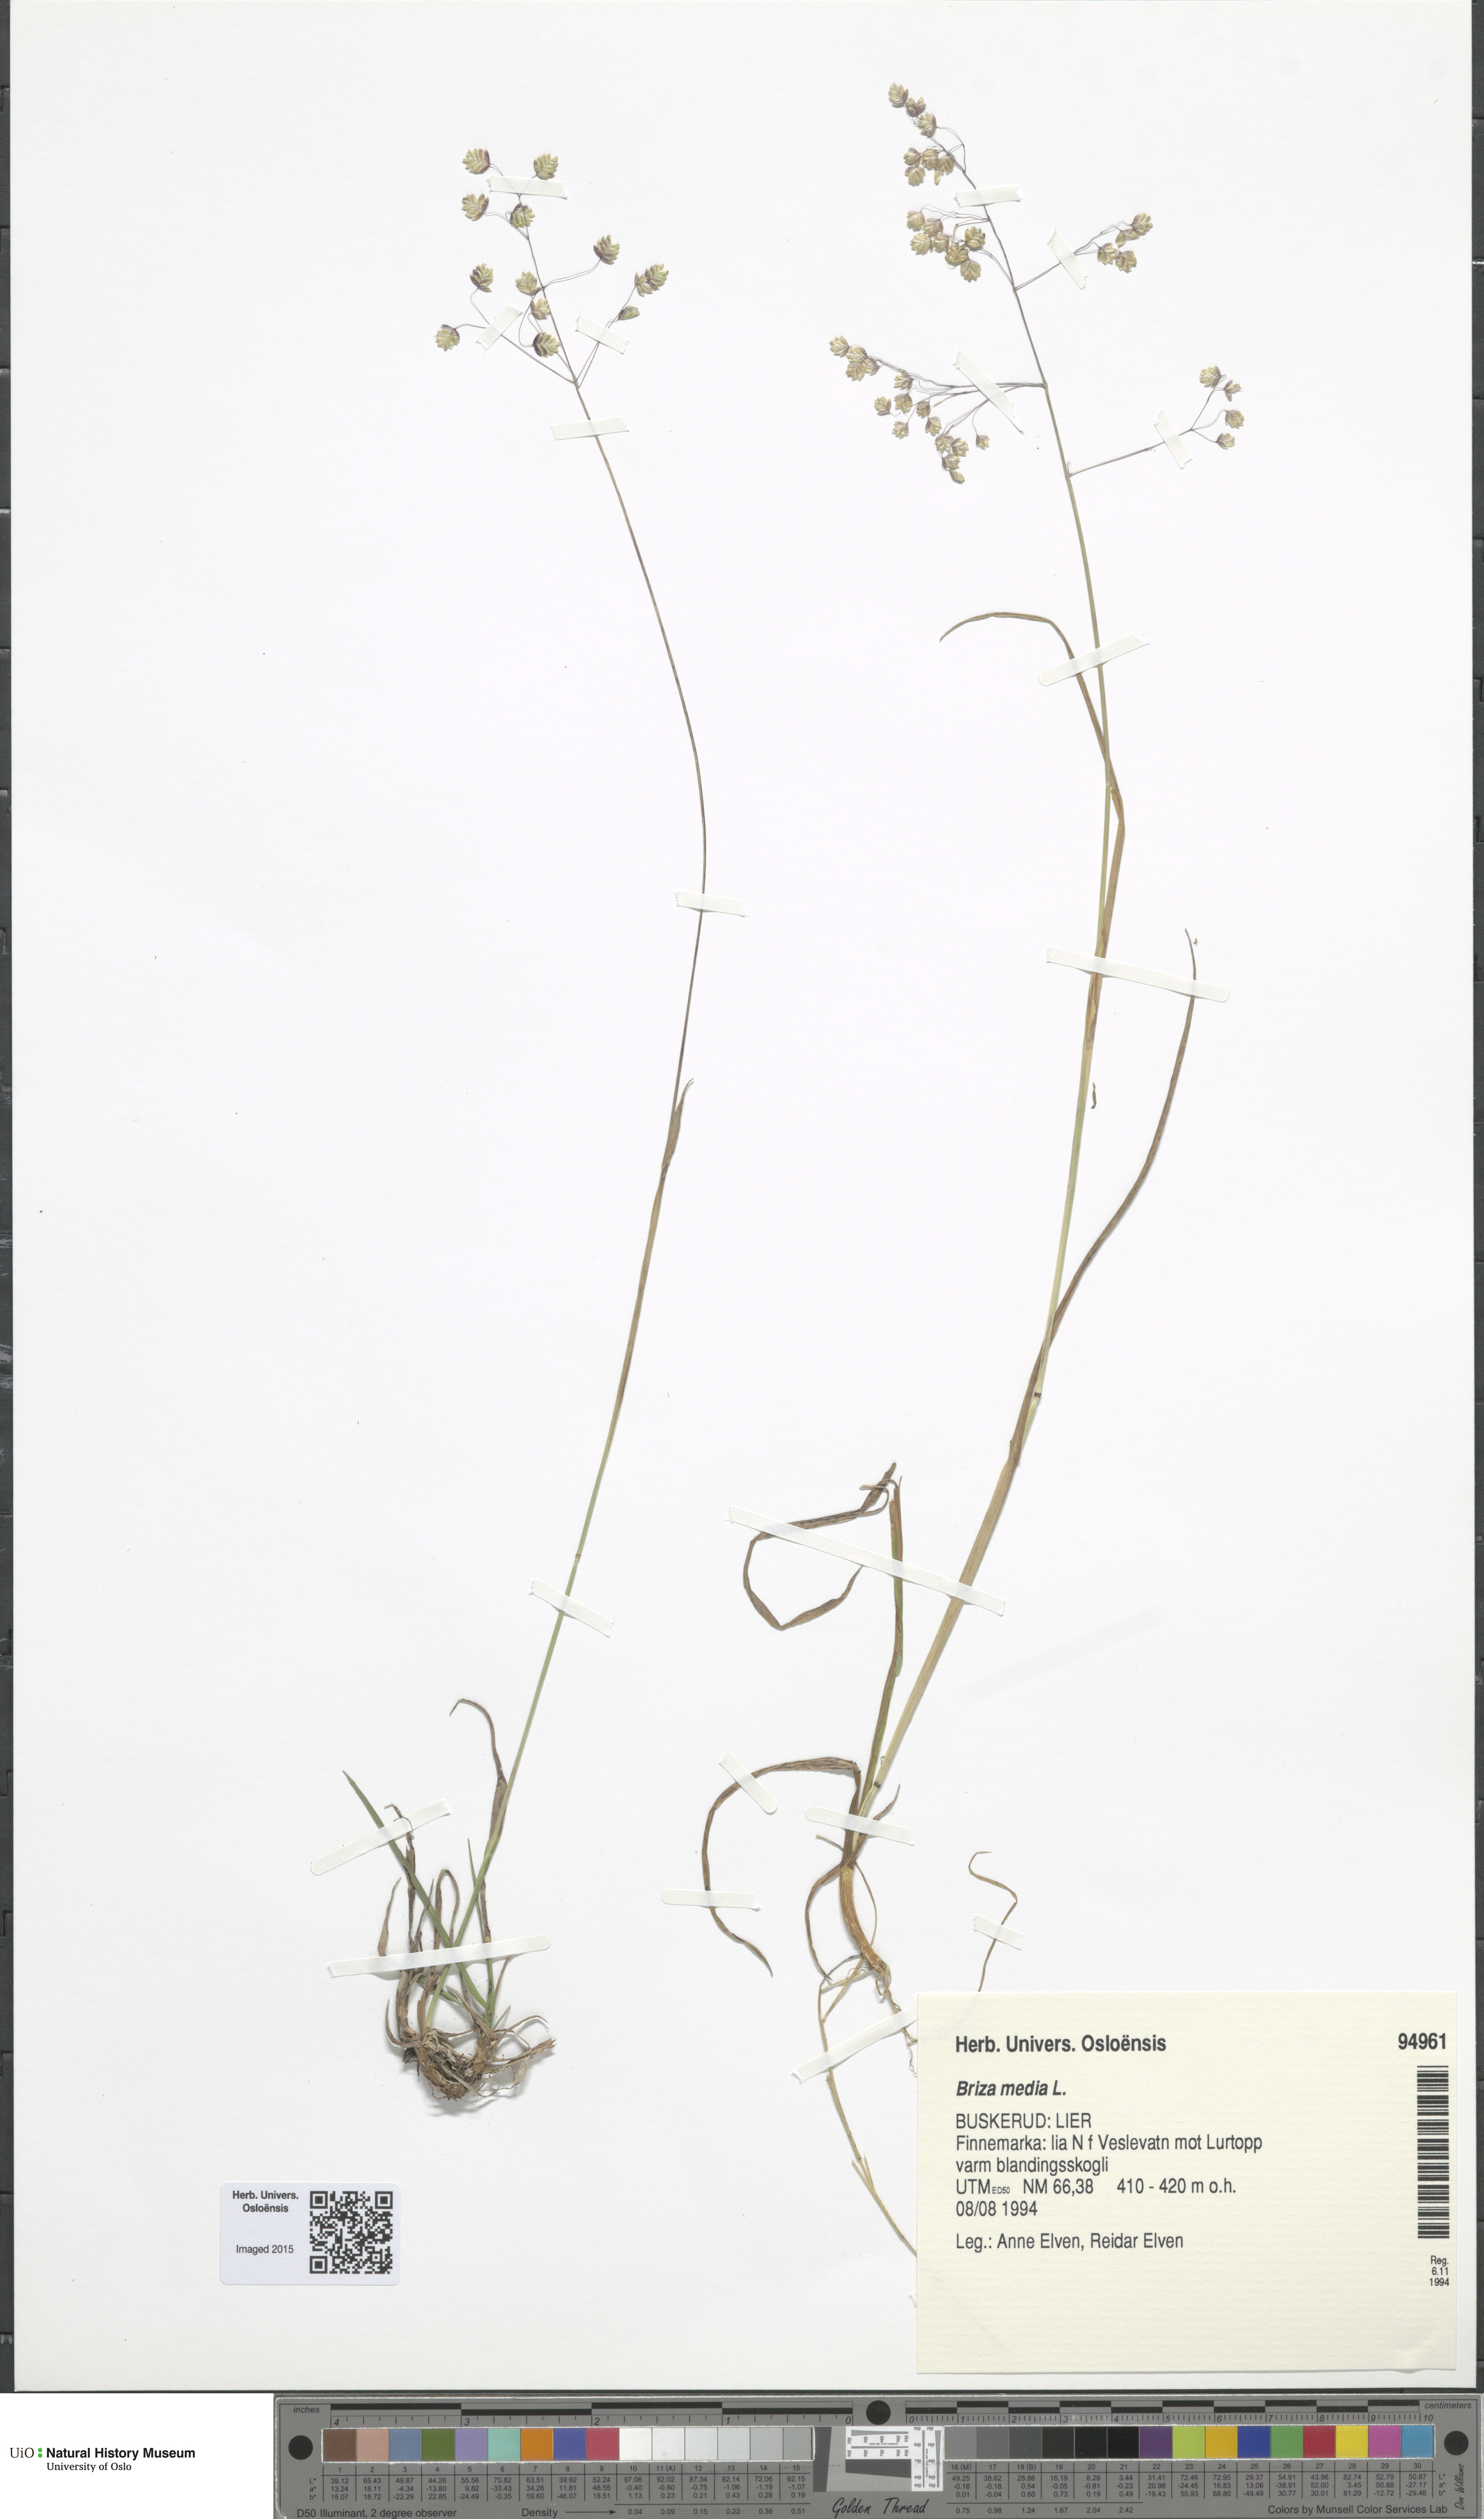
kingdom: Plantae
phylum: Tracheophyta
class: Liliopsida
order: Poales
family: Poaceae
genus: Briza
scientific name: Briza media
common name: Quaking grass
